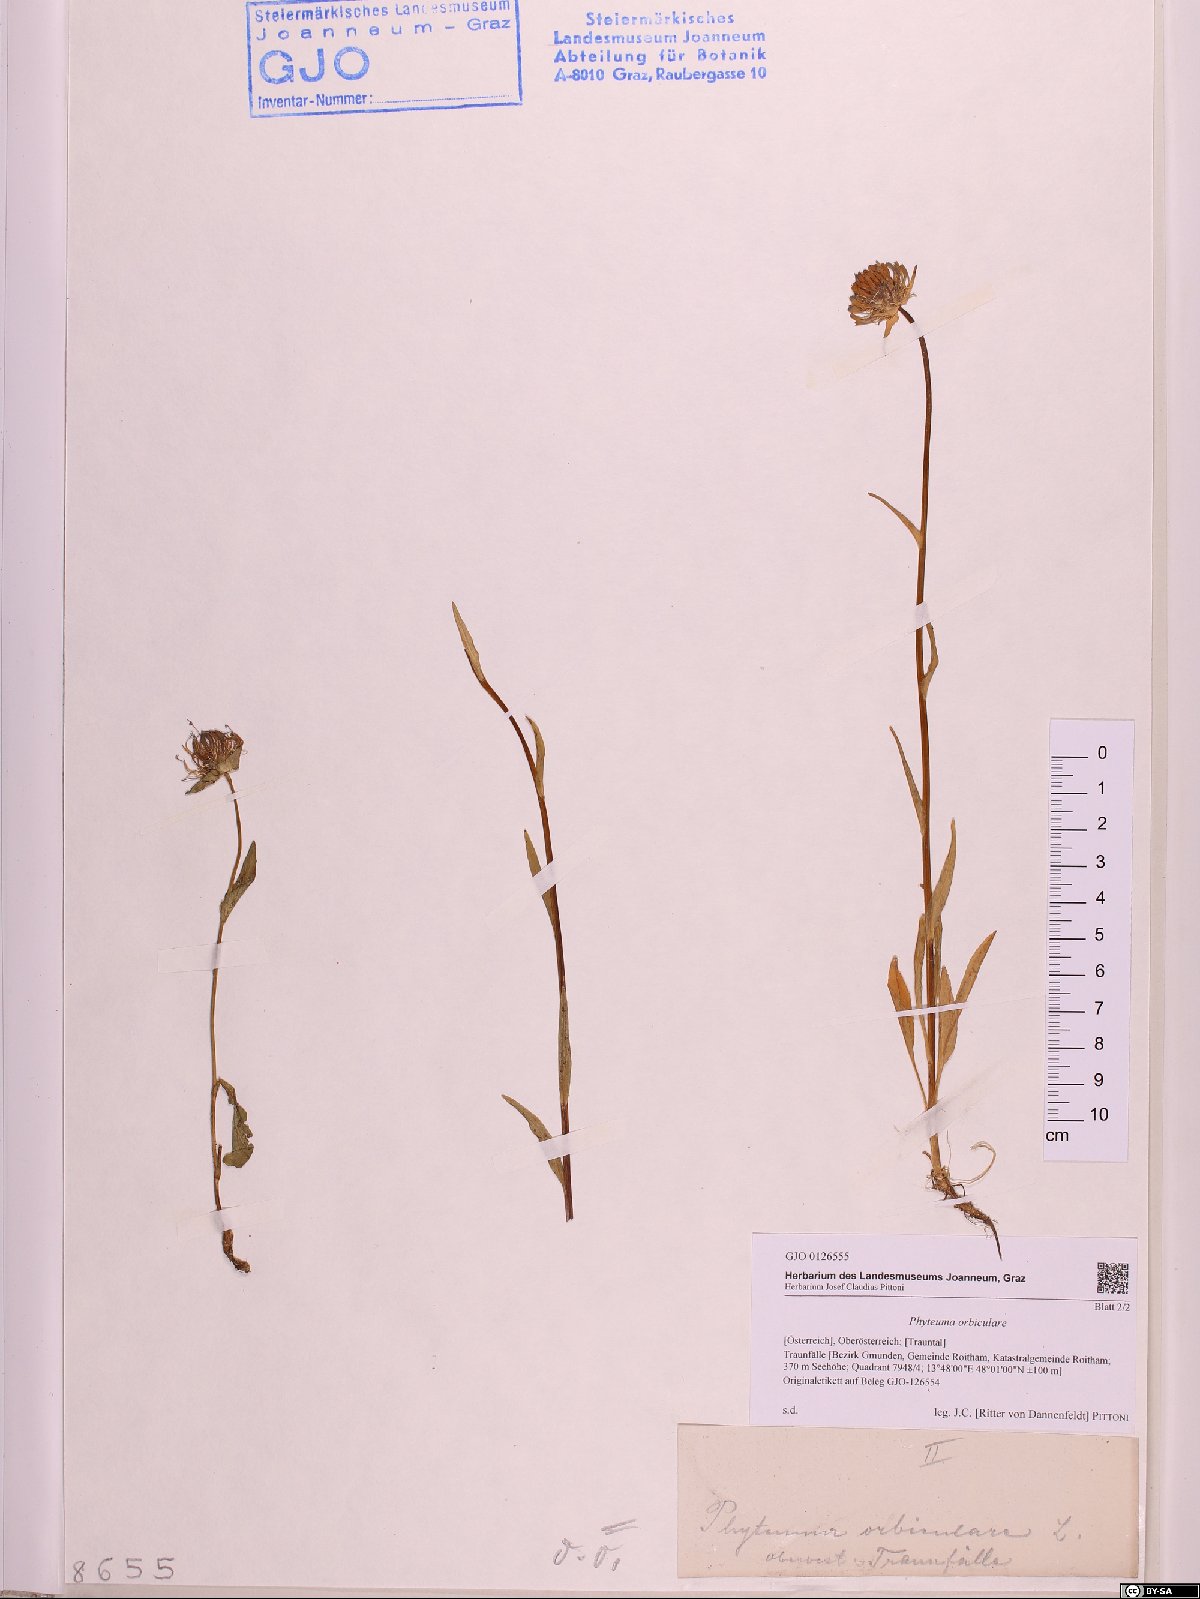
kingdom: Plantae
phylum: Tracheophyta
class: Magnoliopsida
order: Asterales
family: Campanulaceae
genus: Phyteuma
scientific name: Phyteuma orbiculare
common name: Round-headed rampion
